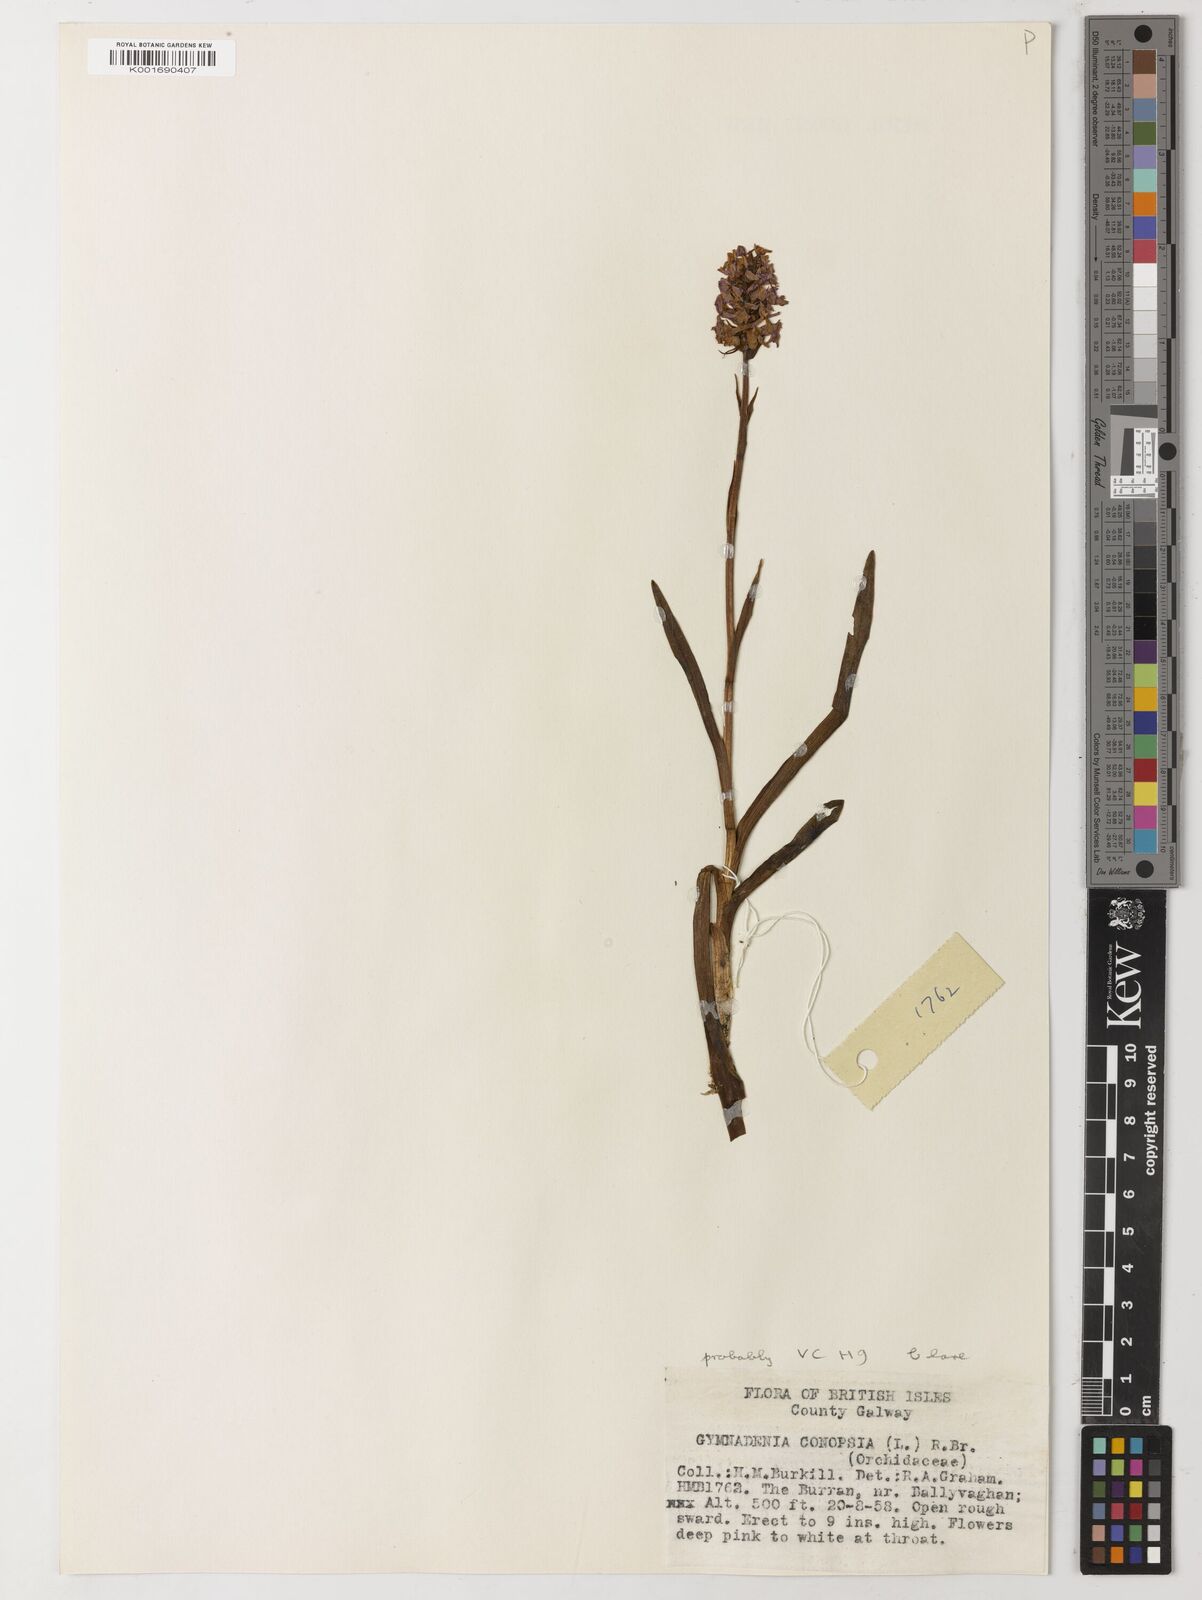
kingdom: Plantae
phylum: Tracheophyta
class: Liliopsida
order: Asparagales
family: Asphodelaceae
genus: Asphodelus
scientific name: Asphodelus aestivus
